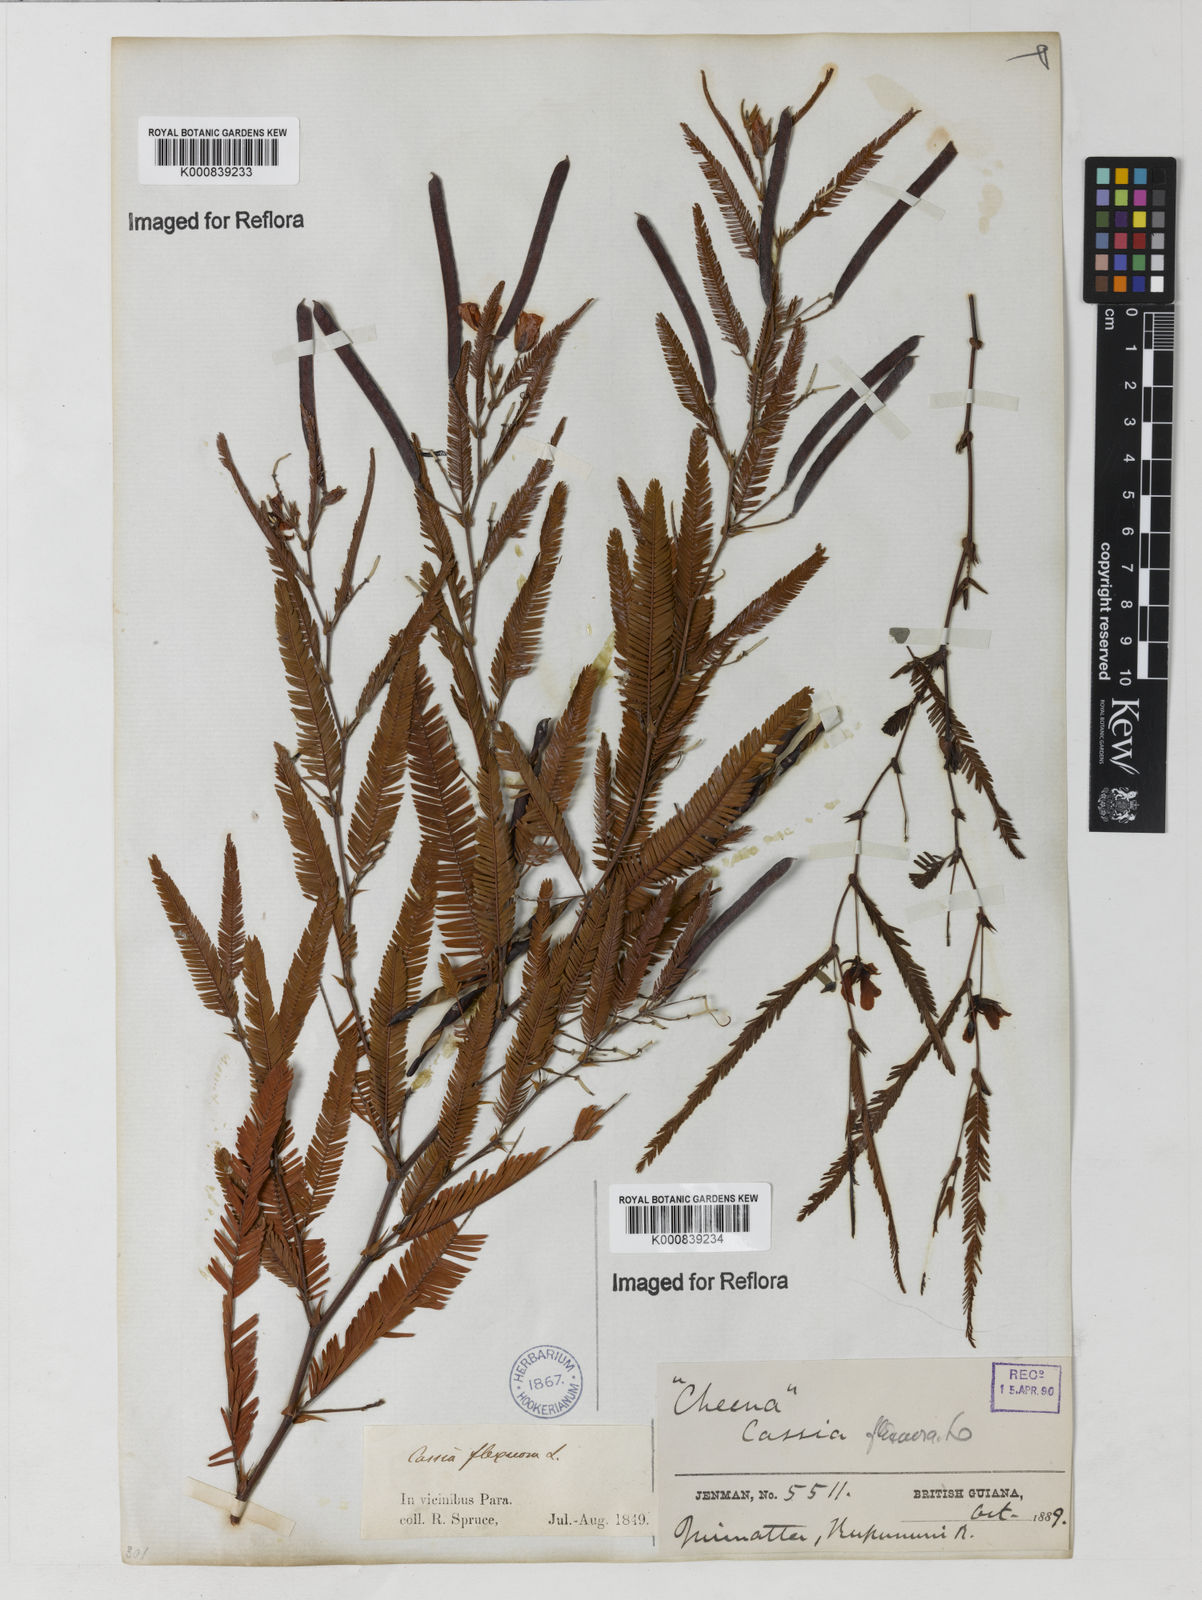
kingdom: Plantae
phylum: Tracheophyta
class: Magnoliopsida
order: Fabales
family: Fabaceae
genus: Chamaecrista
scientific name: Chamaecrista flexuosa
